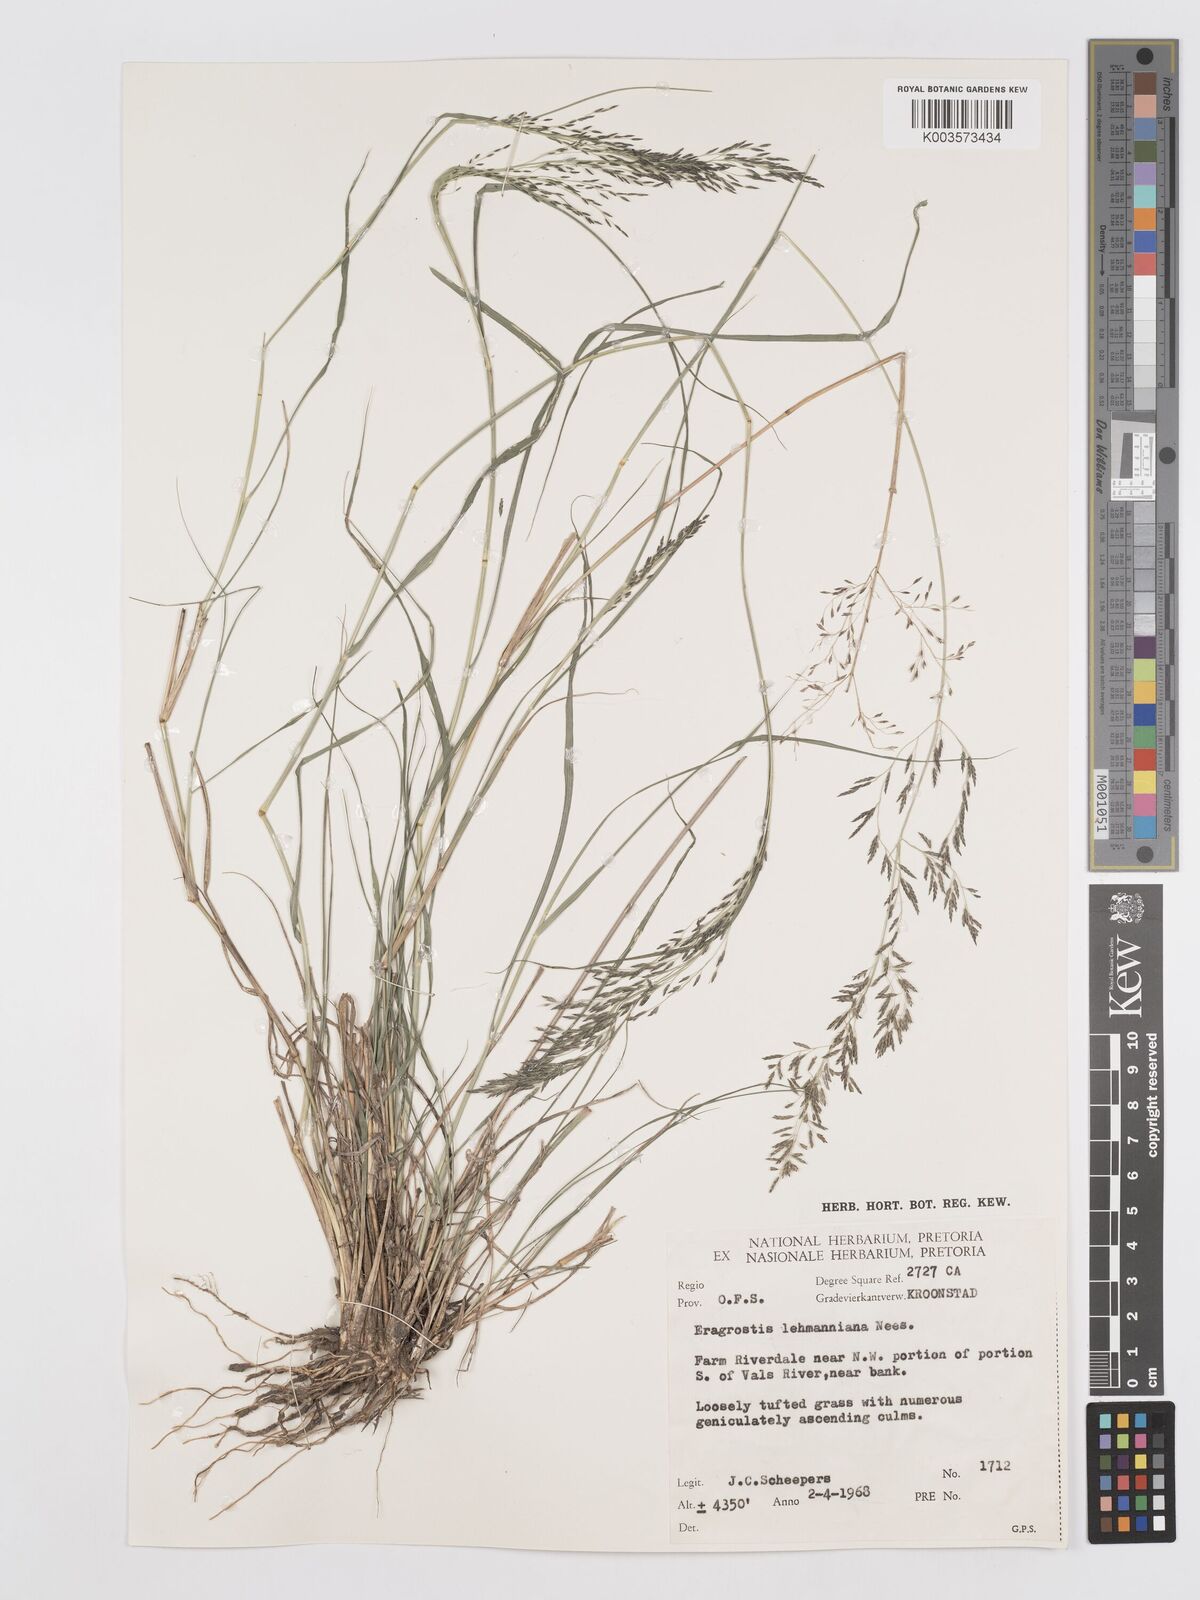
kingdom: Plantae
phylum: Tracheophyta
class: Liliopsida
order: Poales
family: Poaceae
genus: Eragrostis
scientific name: Eragrostis lehmanniana
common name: Lehmann lovegrass
